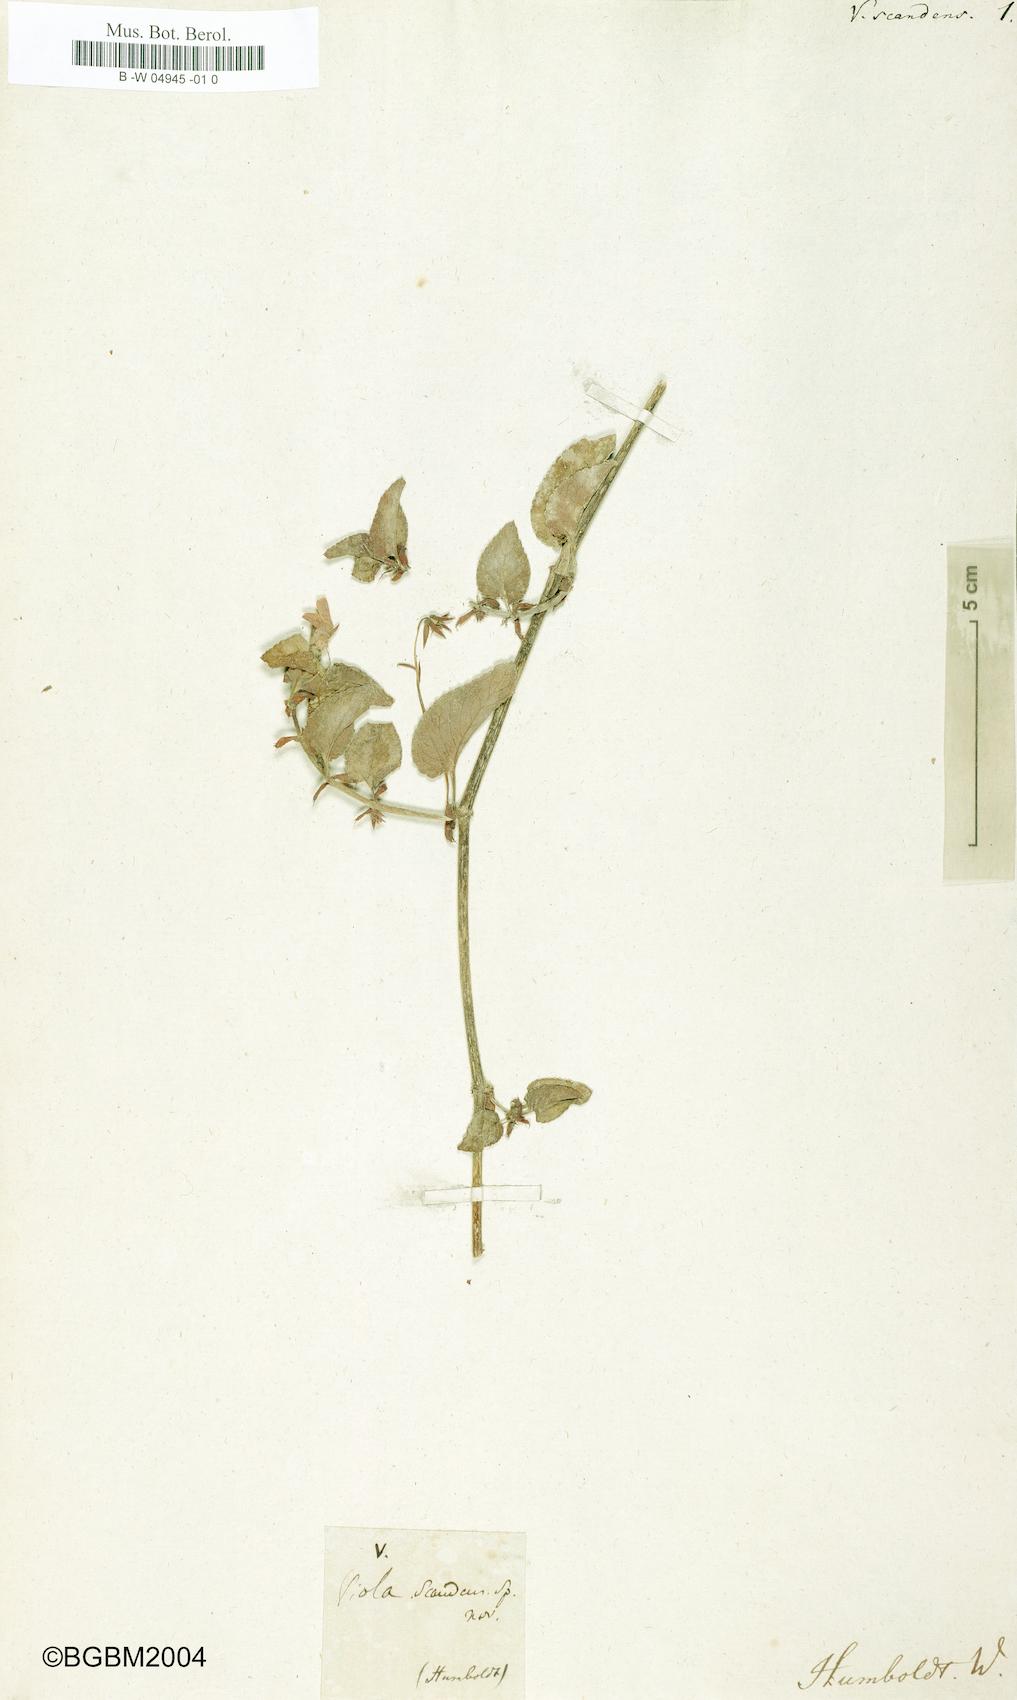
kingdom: Plantae
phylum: Tracheophyta
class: Magnoliopsida
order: Malpighiales
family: Violaceae
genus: Viola
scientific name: Viola scandens
